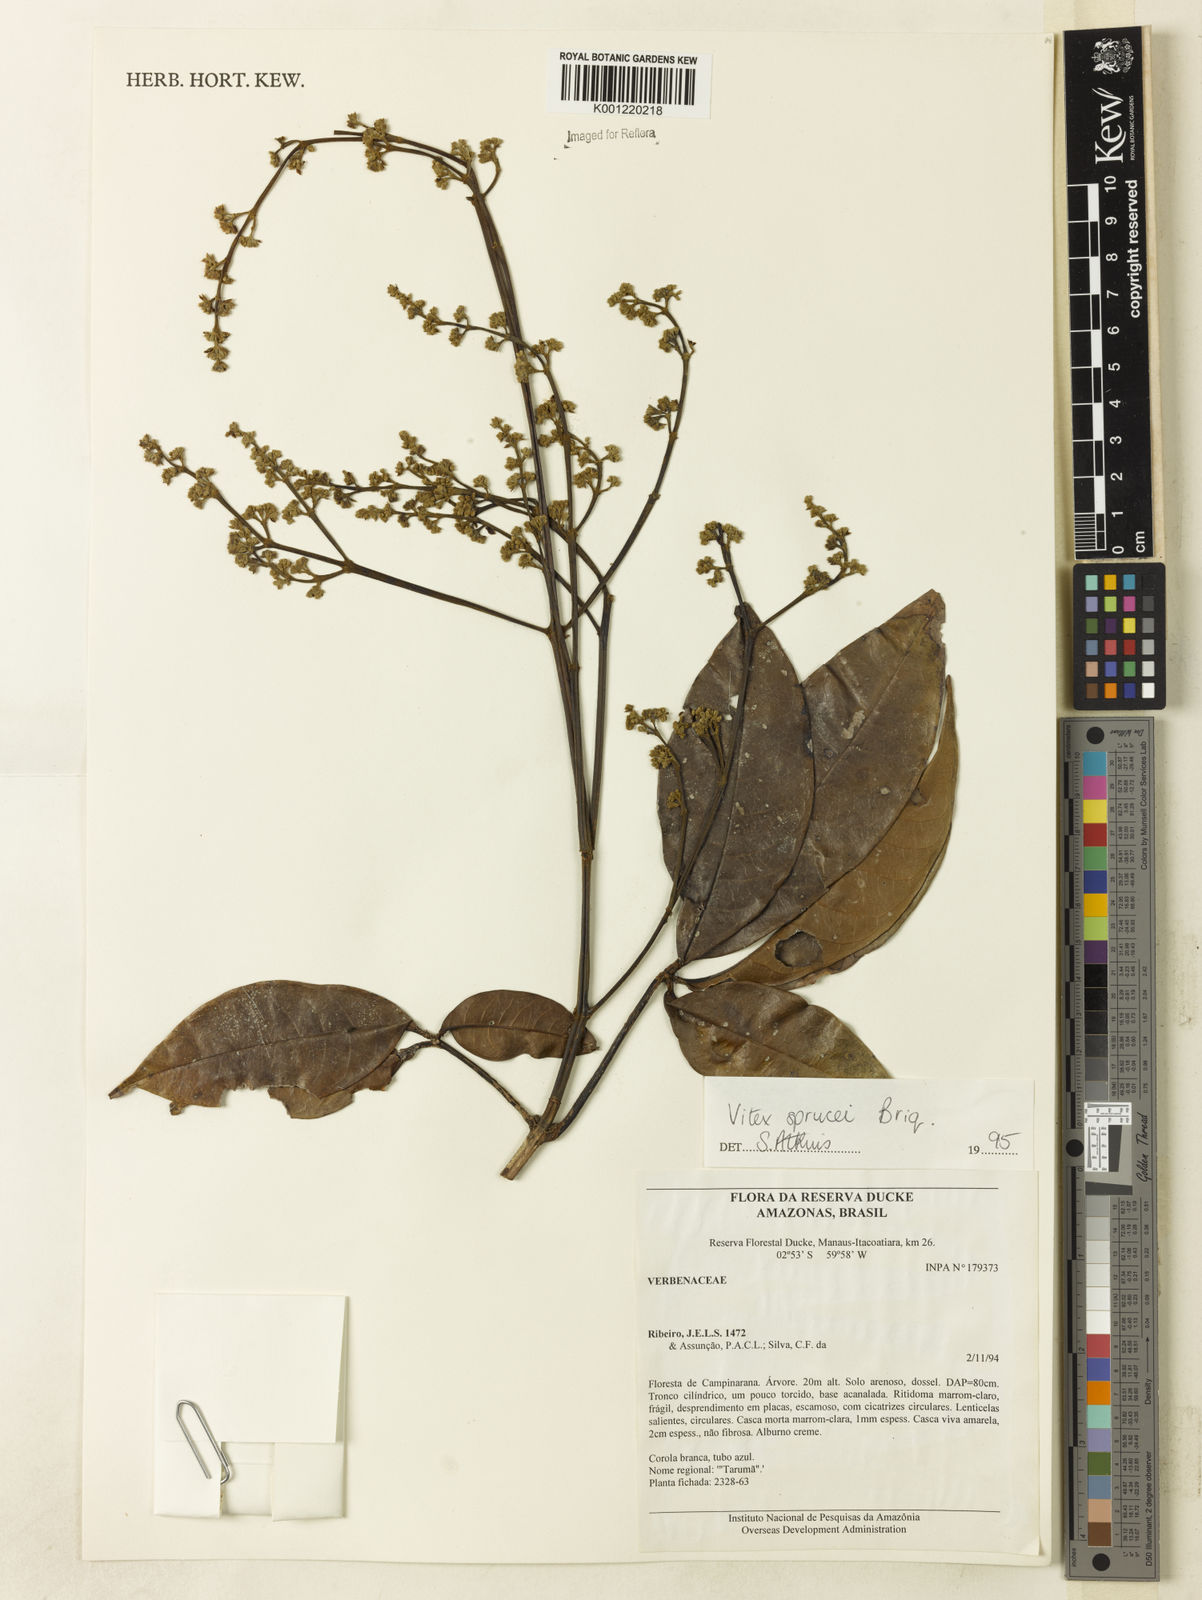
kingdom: Plantae
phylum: Tracheophyta
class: Magnoliopsida
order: Lamiales
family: Lamiaceae
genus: Vitex
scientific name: Vitex sprucei
